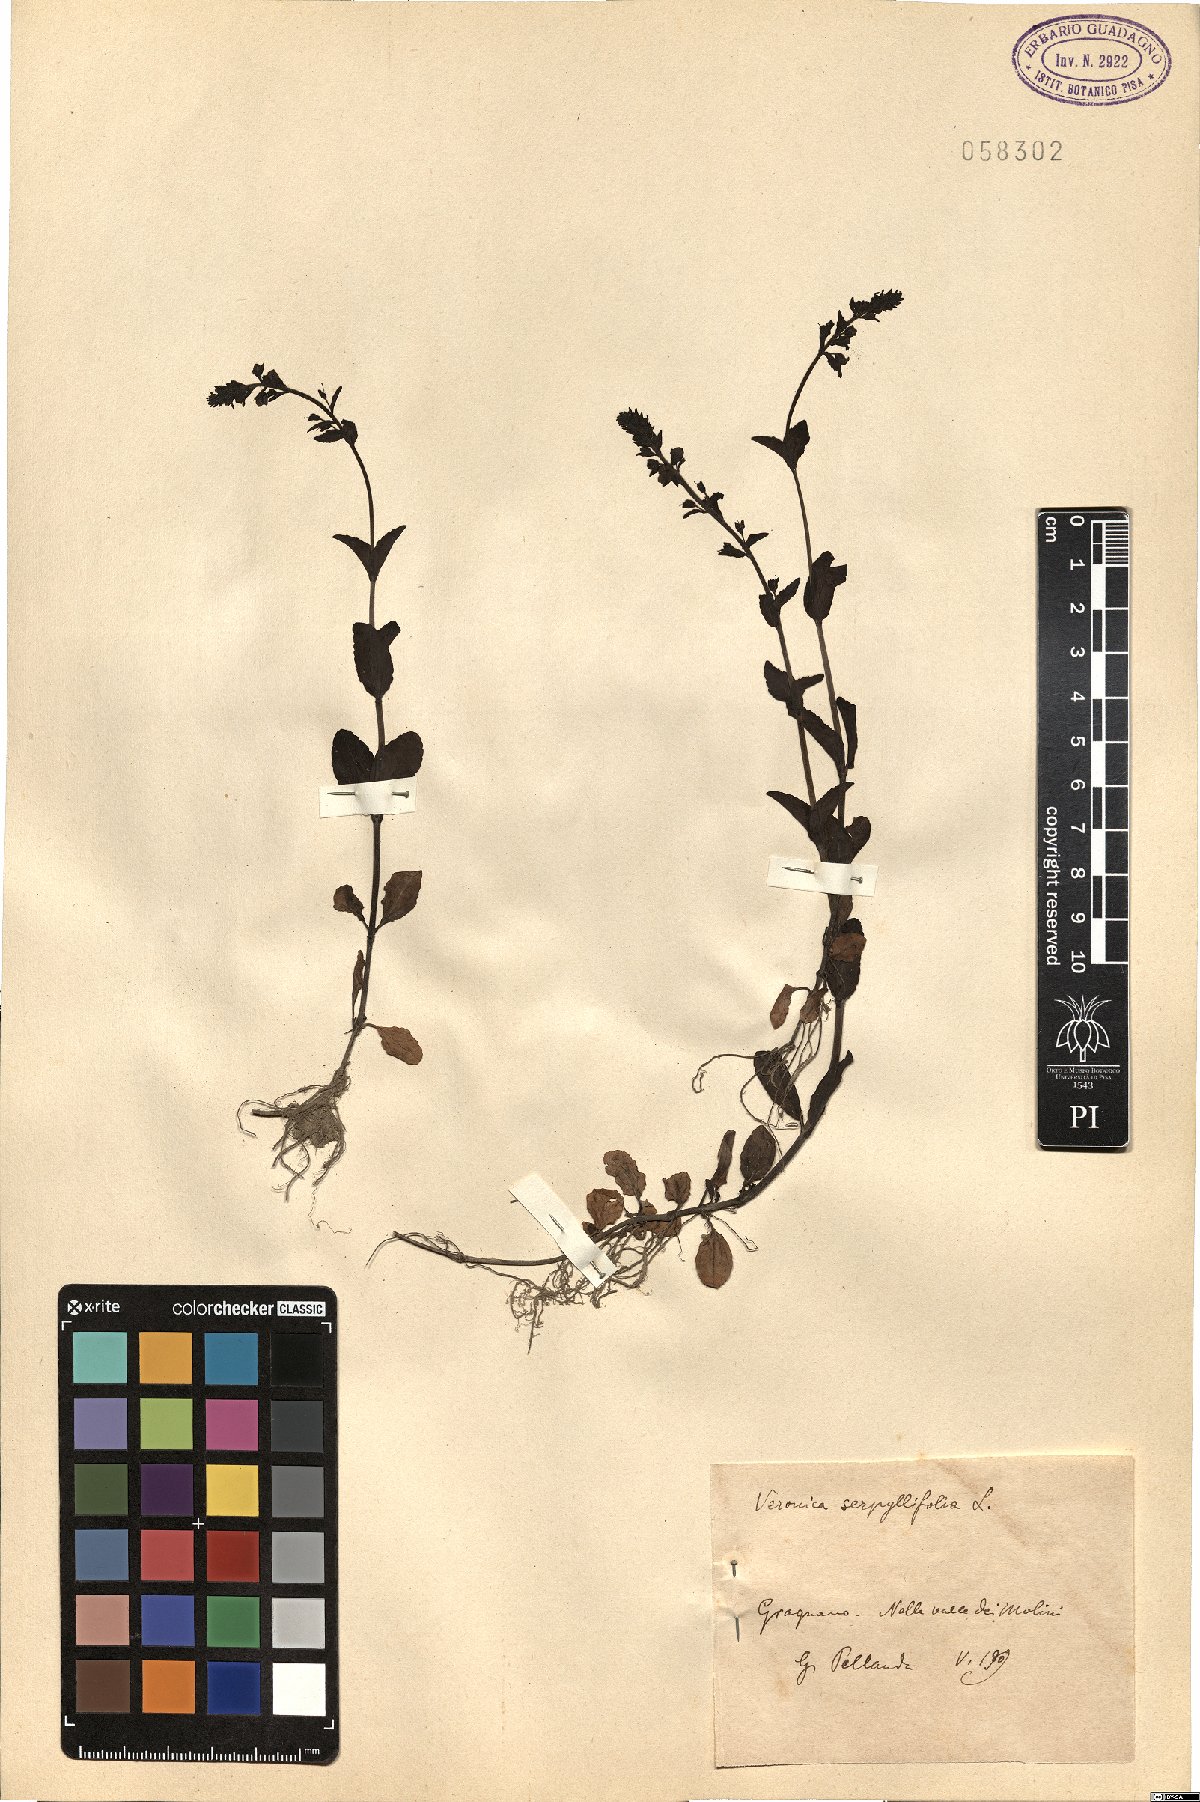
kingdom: Plantae
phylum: Tracheophyta
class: Magnoliopsida
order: Lamiales
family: Plantaginaceae
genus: Veronica
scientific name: Veronica serpyllifolia
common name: Thyme-leaved speedwell
